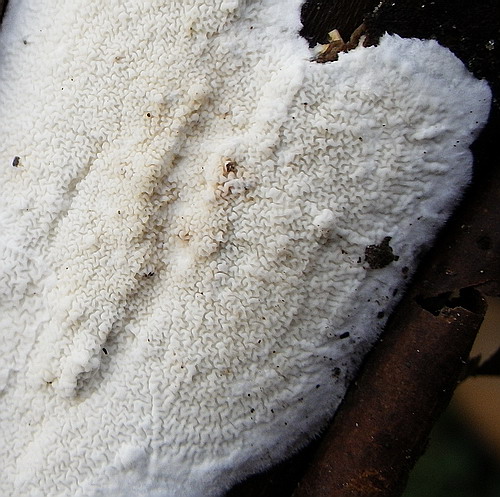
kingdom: Fungi
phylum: Basidiomycota
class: Agaricomycetes
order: Polyporales
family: Irpicaceae
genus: Byssomerulius
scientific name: Byssomerulius corium
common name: læder-åresvamp
